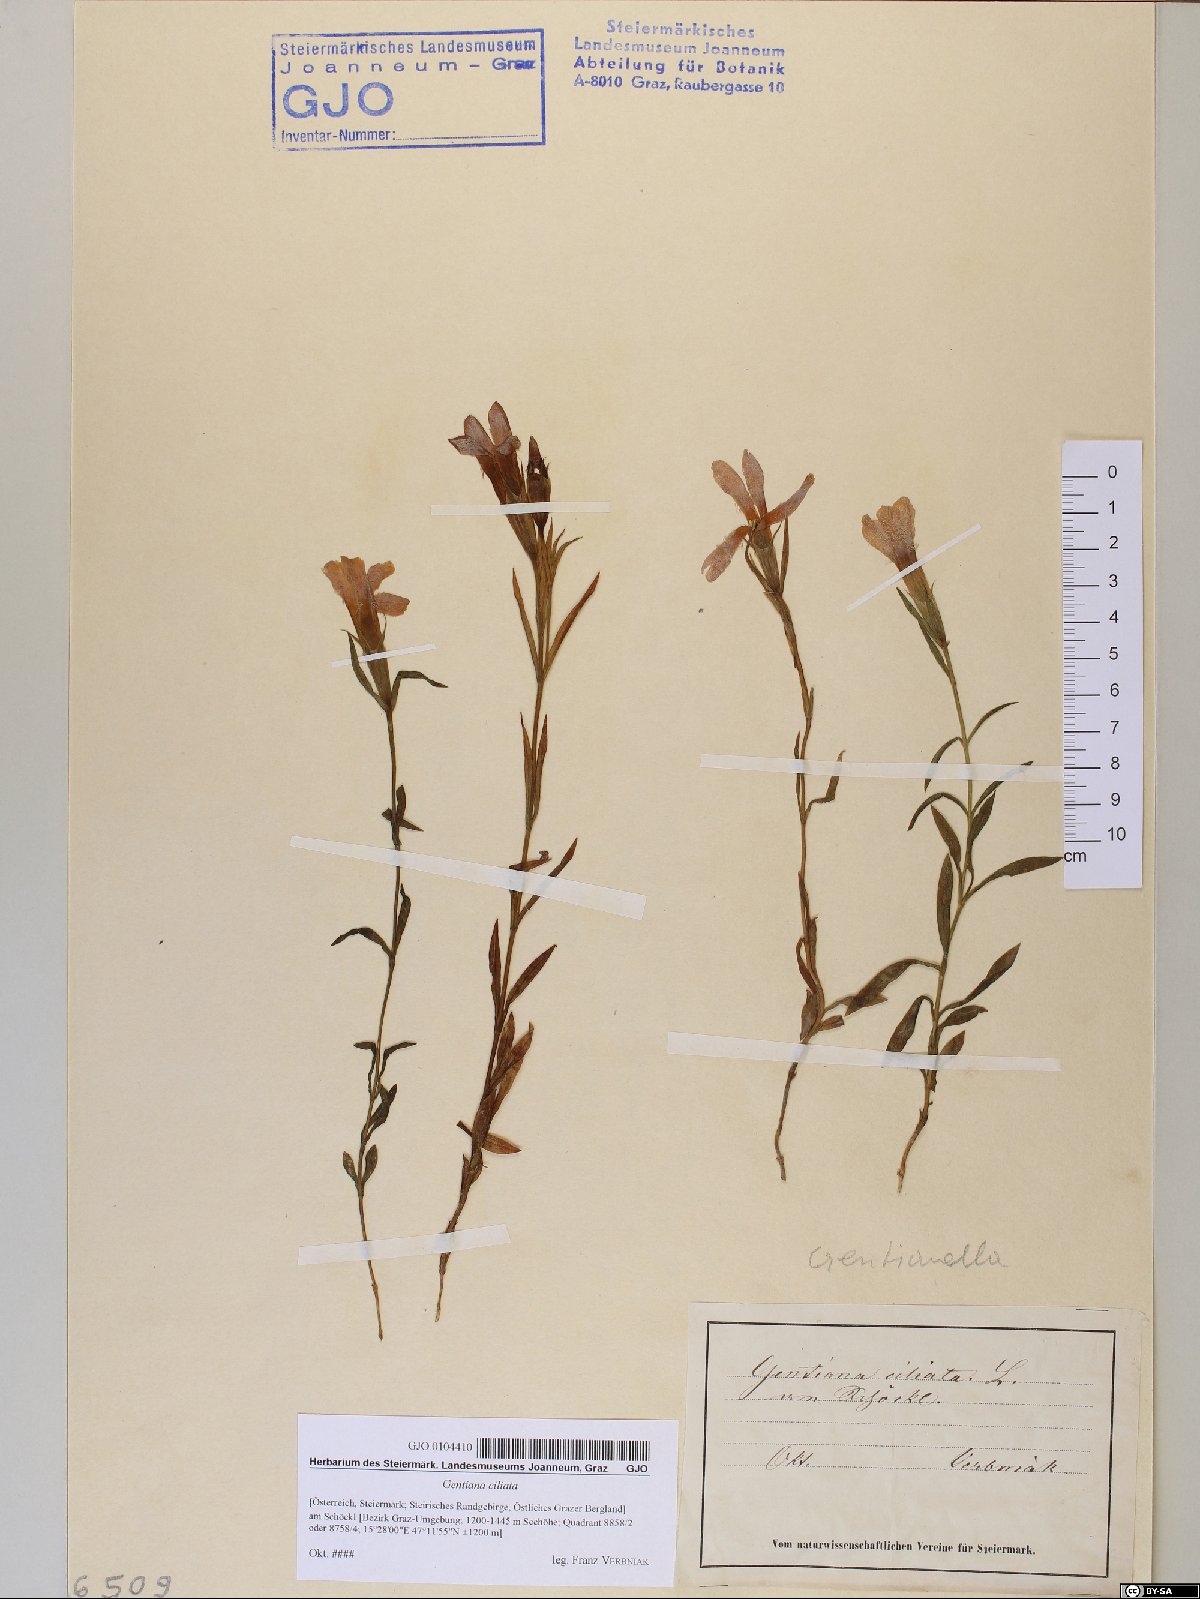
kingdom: Plantae
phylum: Tracheophyta
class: Magnoliopsida
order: Gentianales
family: Gentianaceae
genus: Gentianopsis
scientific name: Gentianopsis ciliata
